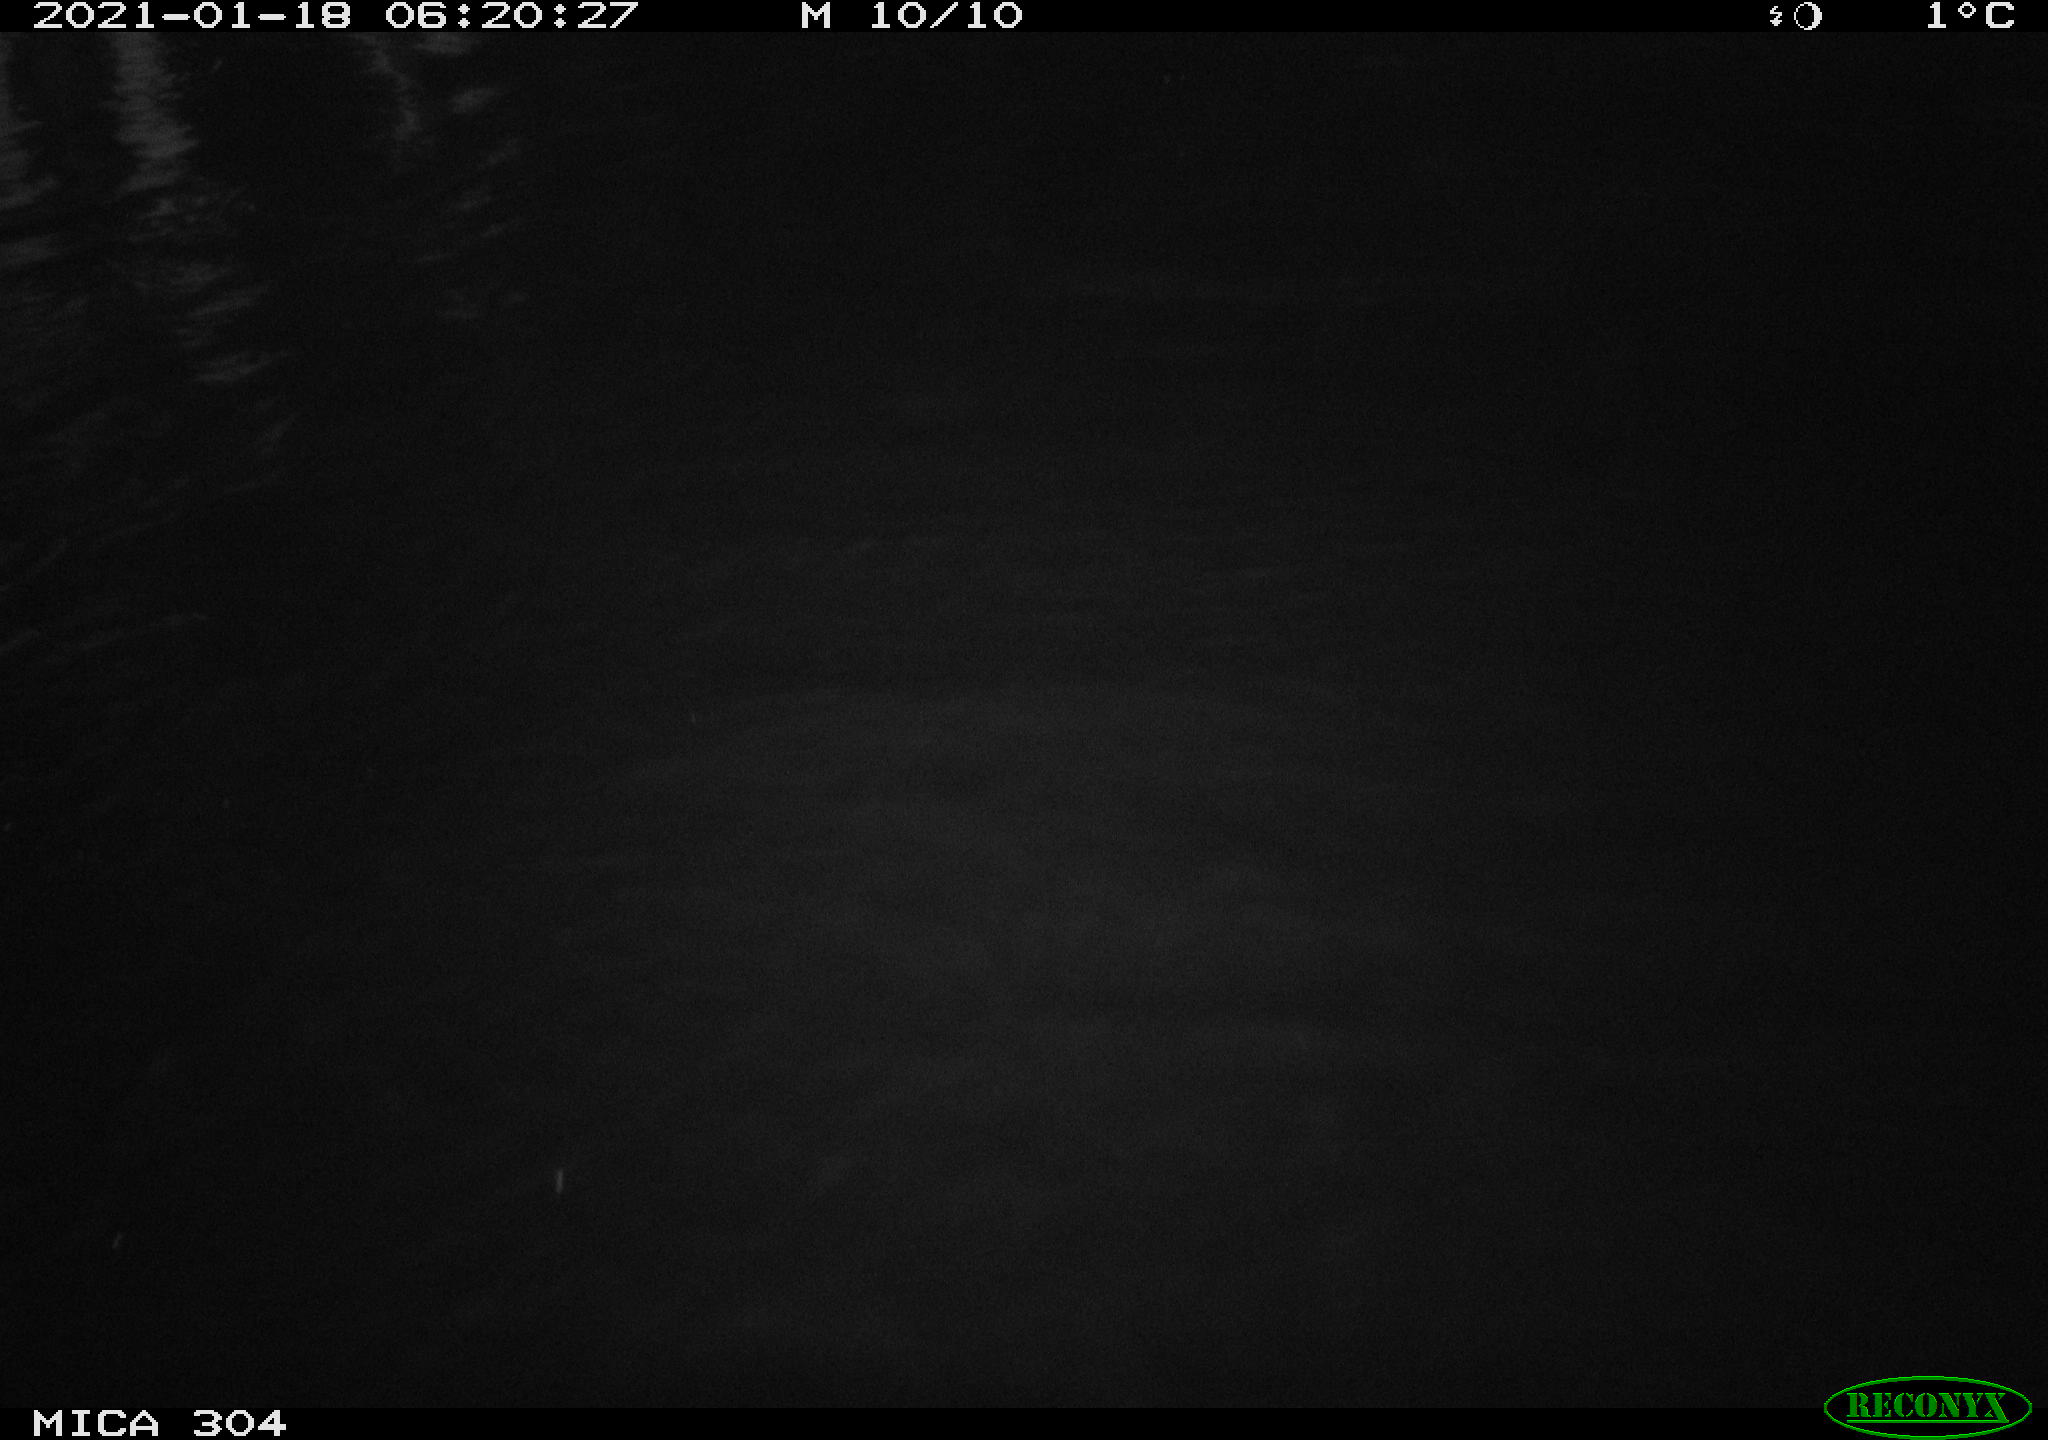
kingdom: Animalia
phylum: Chordata
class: Aves
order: Anseriformes
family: Anatidae
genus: Anas
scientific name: Anas platyrhynchos
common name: Mallard
